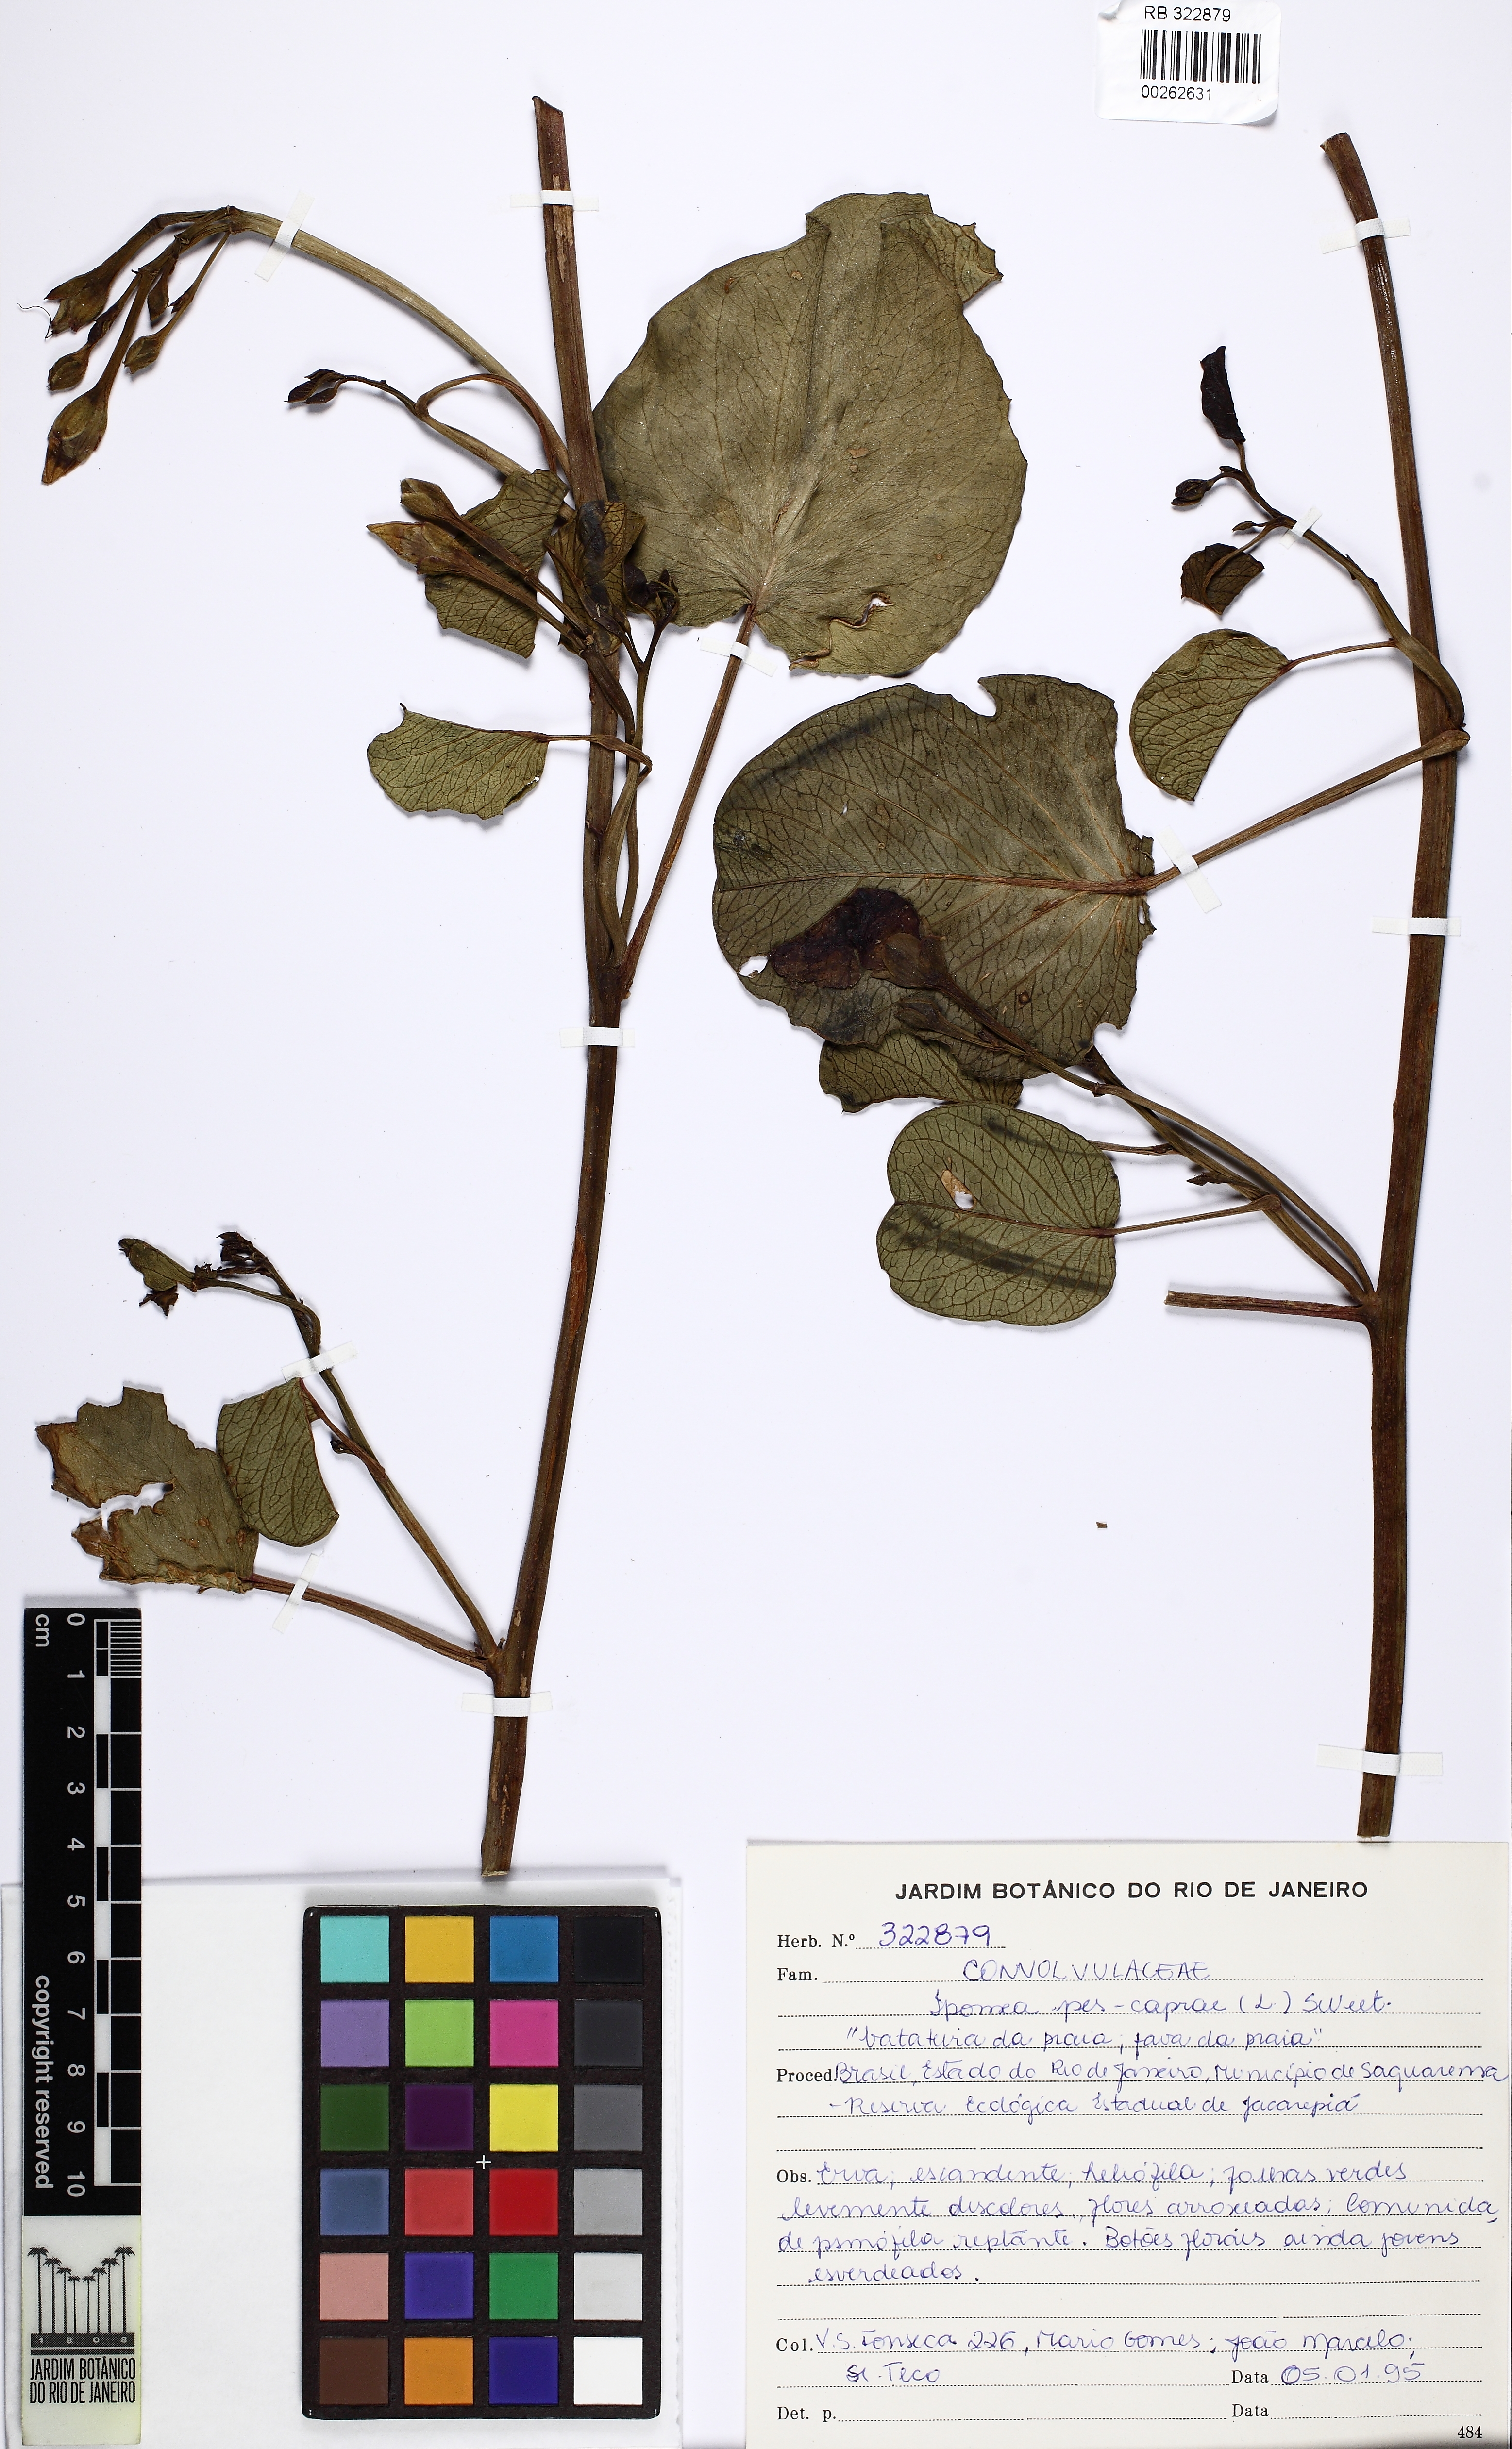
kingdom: Plantae
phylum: Tracheophyta
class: Magnoliopsida
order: Solanales
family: Convolvulaceae
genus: Ipomoea
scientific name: Ipomoea pes-caprae
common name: Beach morning glory
